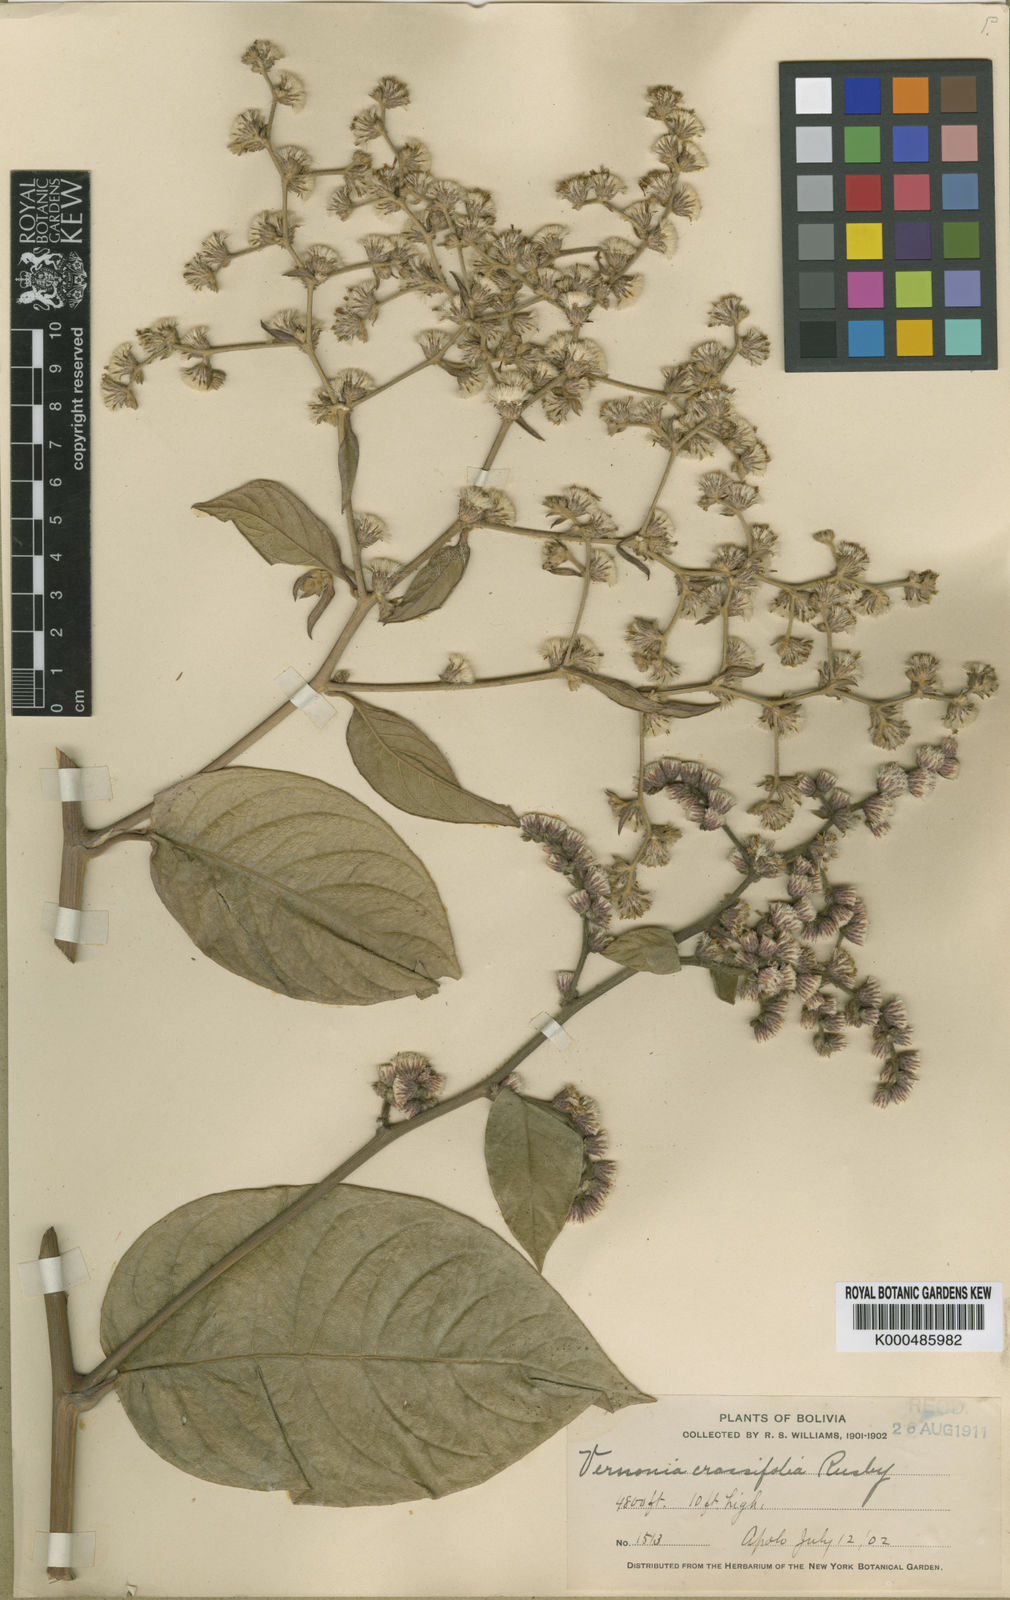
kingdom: Plantae
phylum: Tracheophyta
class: Magnoliopsida
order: Asterales
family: Asteraceae
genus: Lepidaploa
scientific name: Lepidaploa crassifolia
